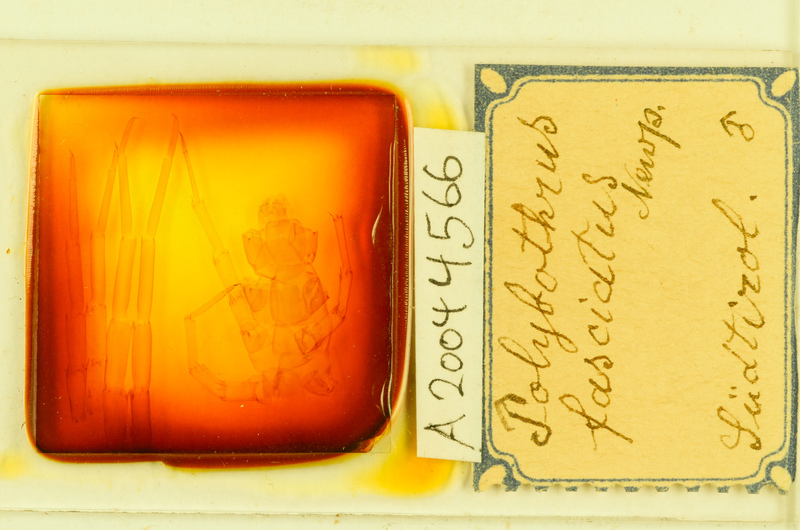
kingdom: Animalia
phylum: Arthropoda
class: Chilopoda
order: Lithobiomorpha
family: Lithobiidae
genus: Polybothrus
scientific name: Polybothrus fasciatus
